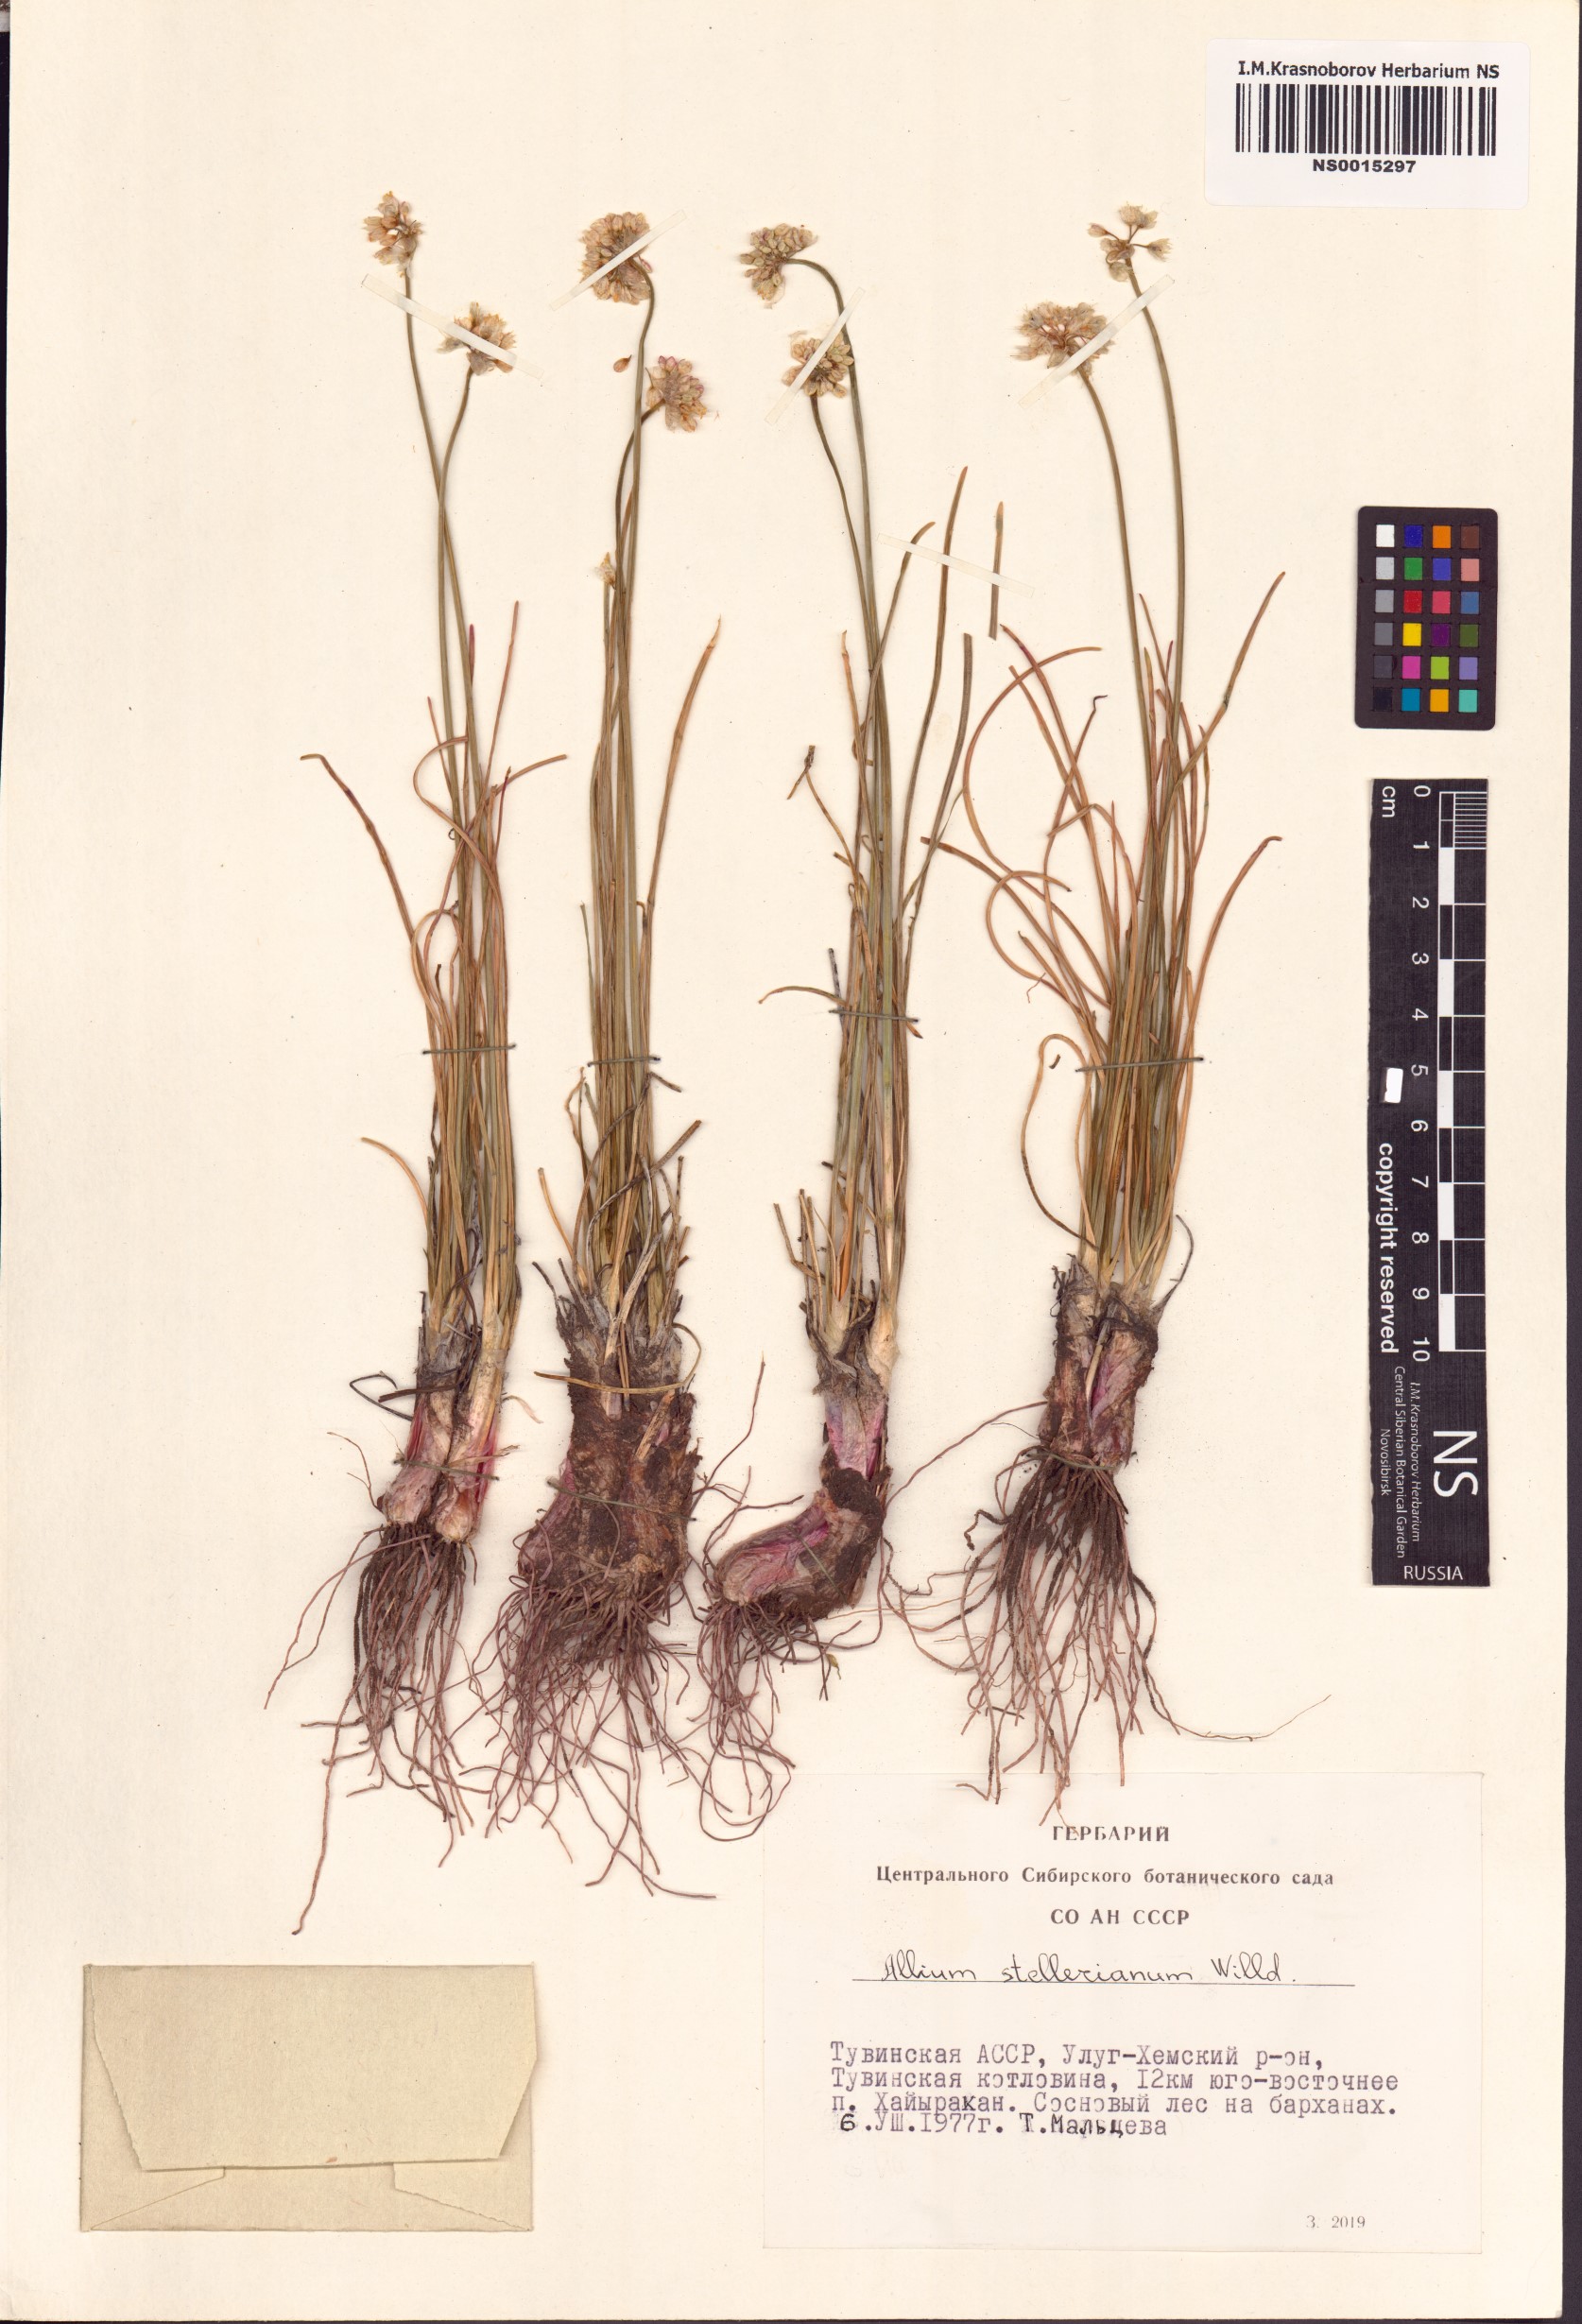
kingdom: Plantae
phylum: Tracheophyta
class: Liliopsida
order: Asparagales
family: Amaryllidaceae
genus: Allium
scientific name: Allium stellerianum
